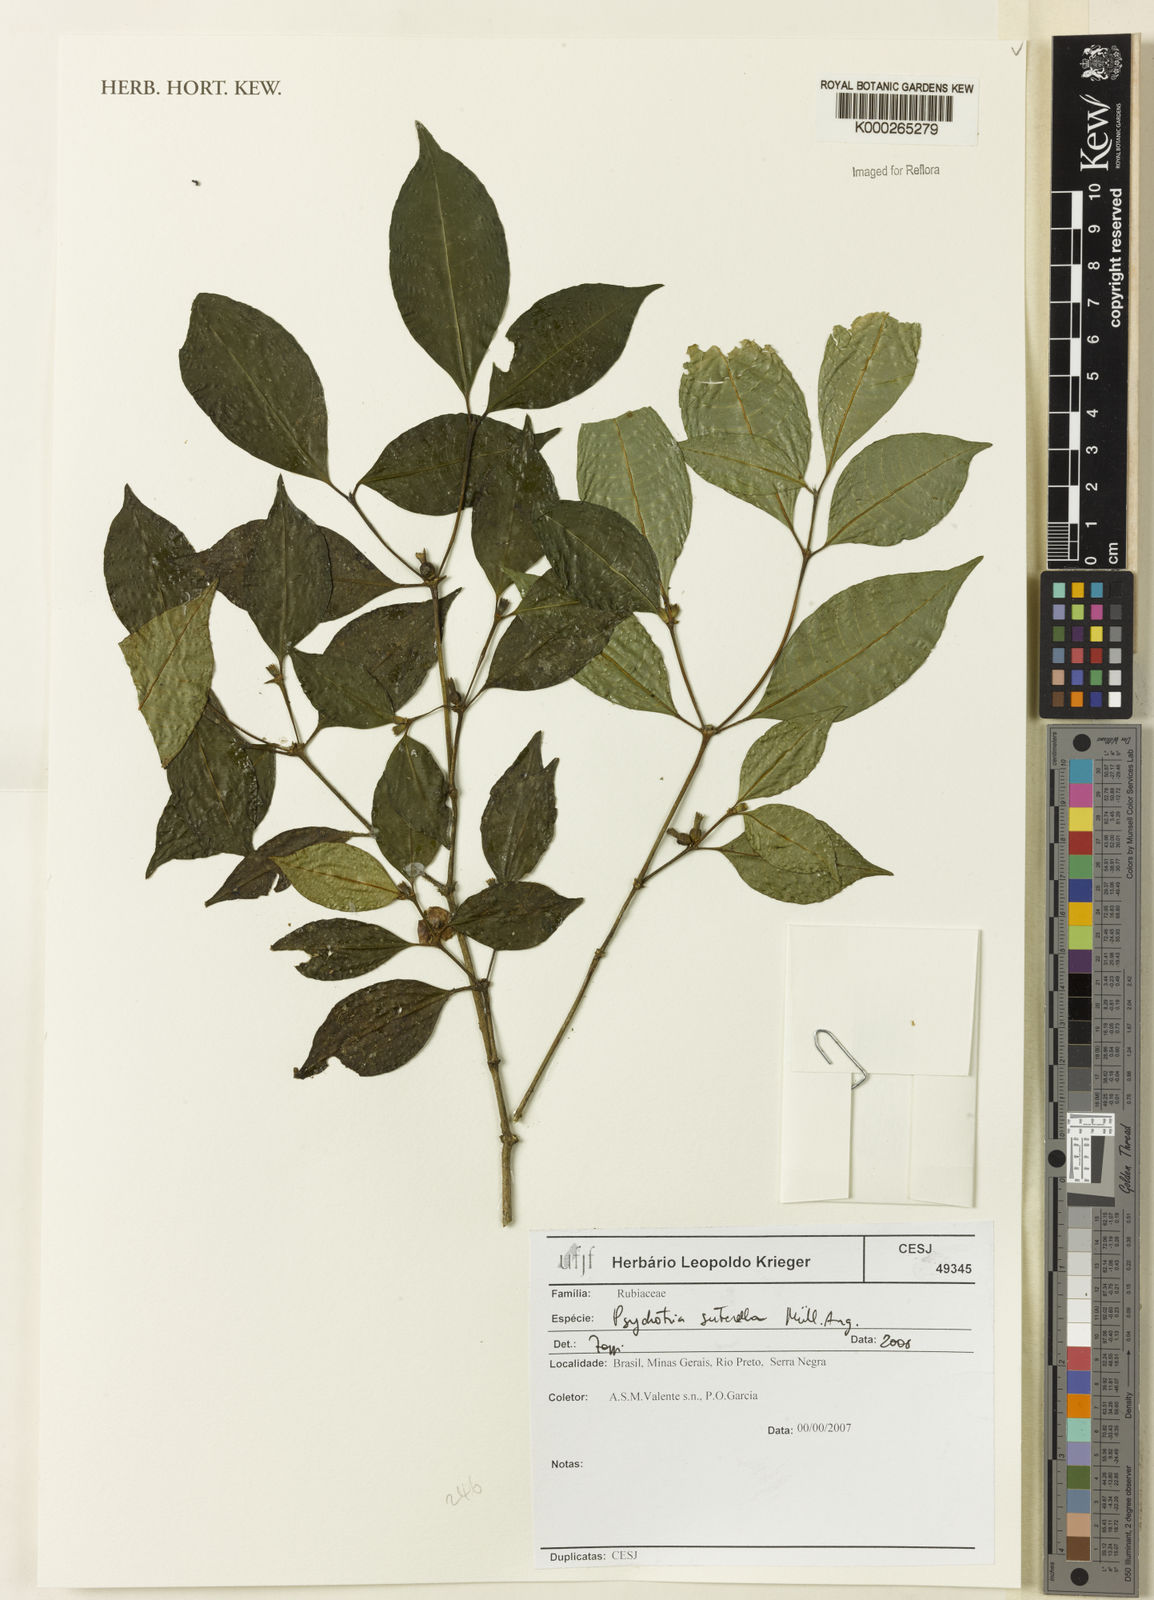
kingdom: Plantae
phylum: Tracheophyta
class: Magnoliopsida
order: Gentianales
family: Rubiaceae
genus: Psychotria
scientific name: Psychotria
